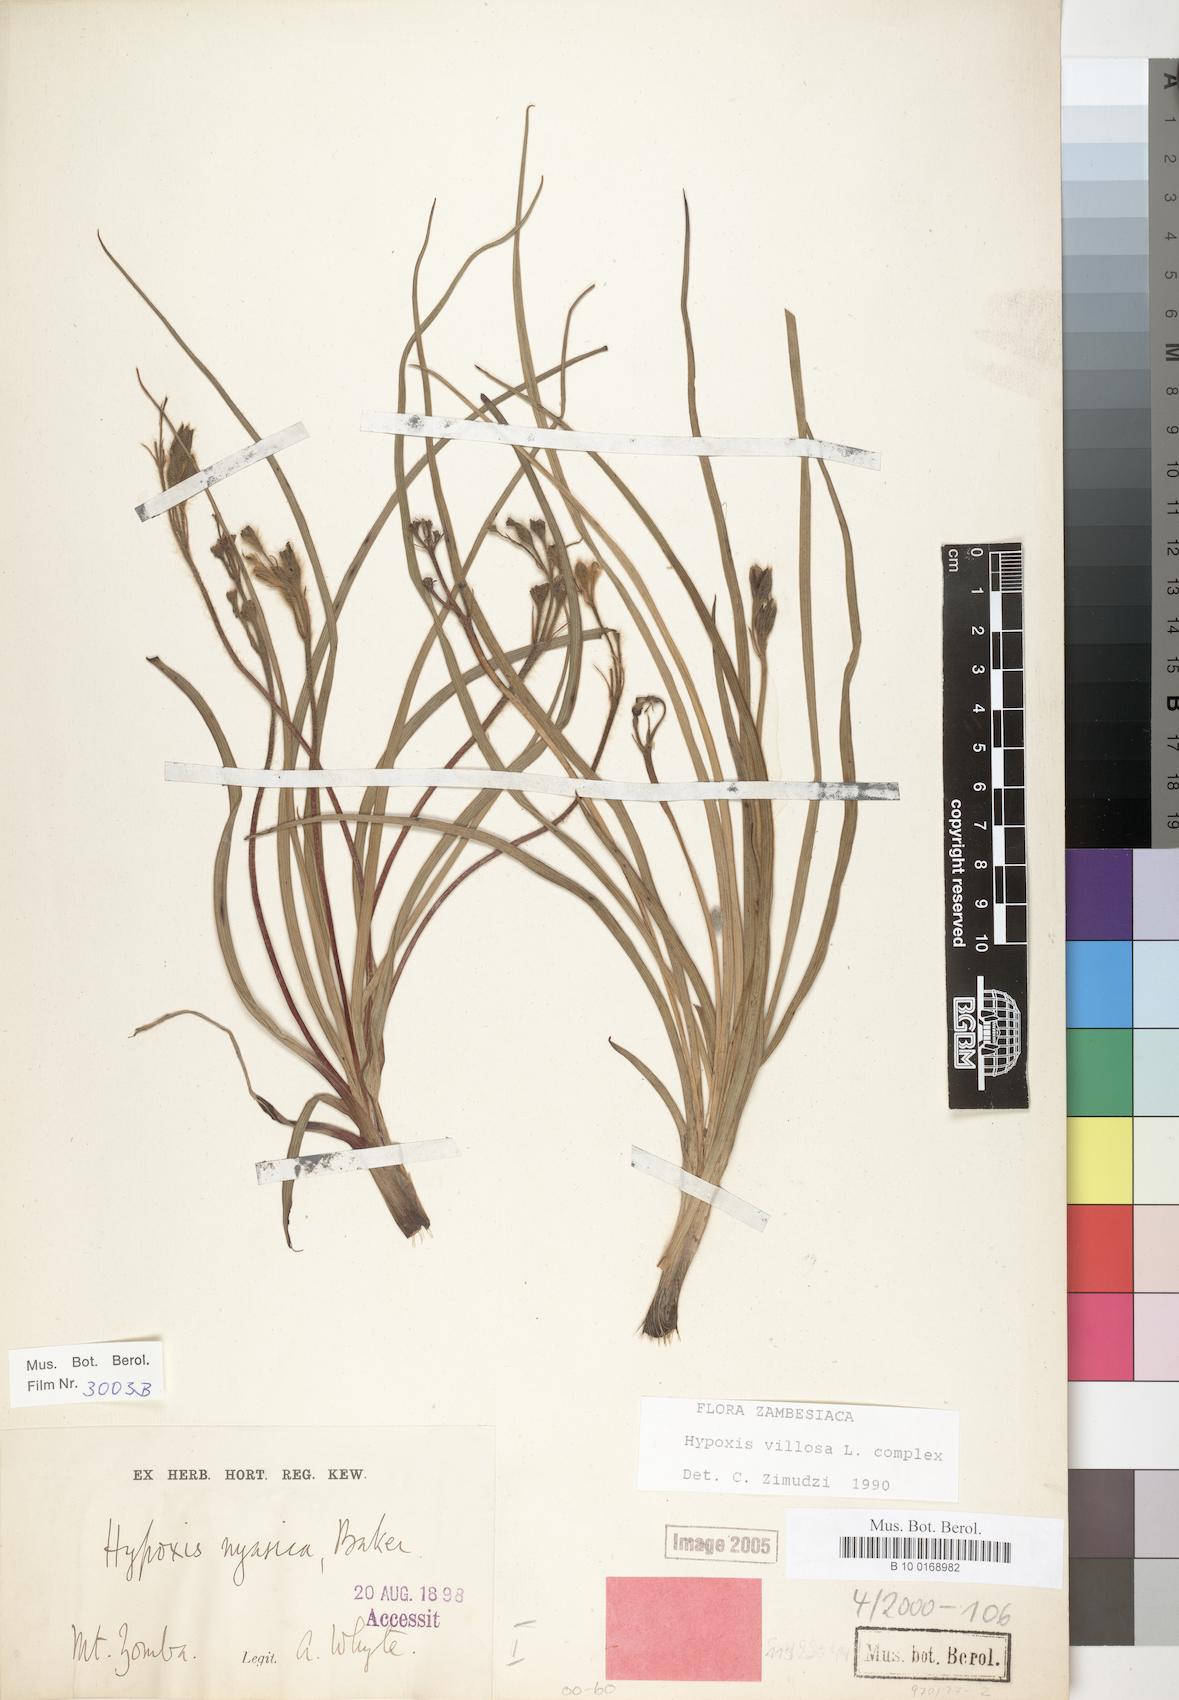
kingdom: Plantae
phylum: Tracheophyta
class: Liliopsida
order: Asparagales
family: Hypoxidaceae
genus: Hypoxis
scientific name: Hypoxis villosa
